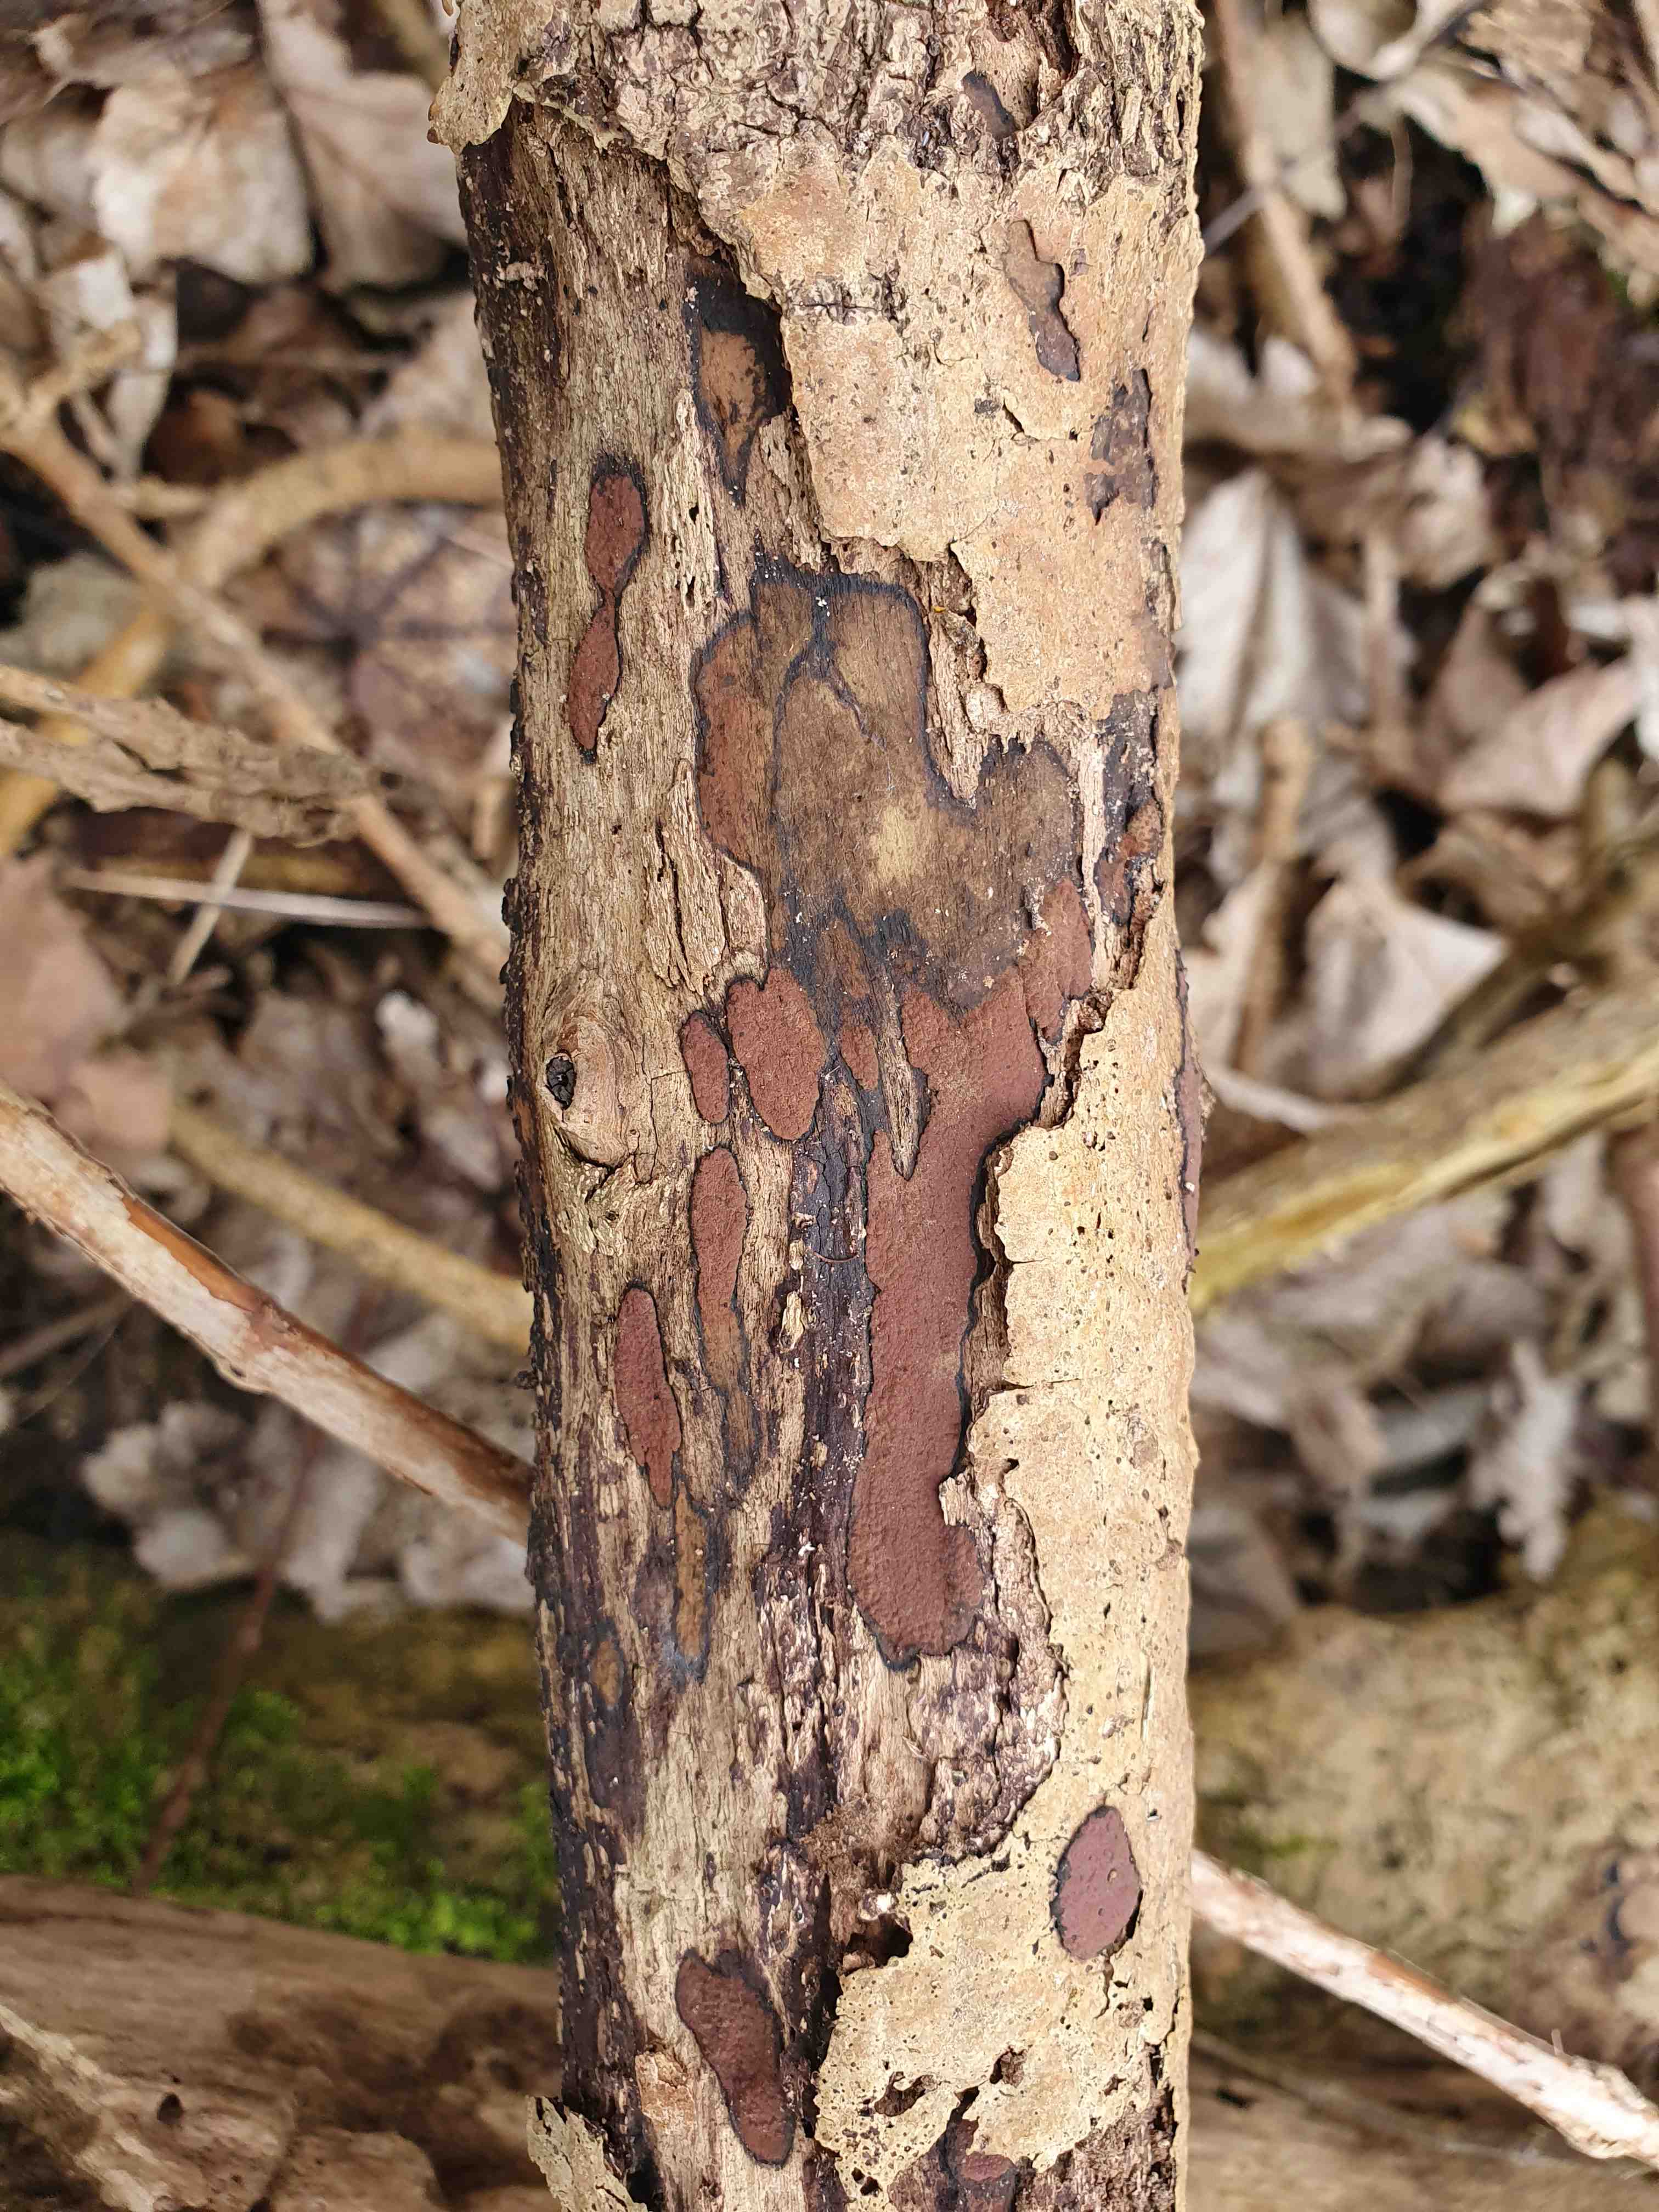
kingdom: Fungi
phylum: Ascomycota
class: Sordariomycetes
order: Xylariales
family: Hypoxylaceae
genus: Hypoxylon
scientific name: Hypoxylon petriniae
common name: nedsænket kulbær
